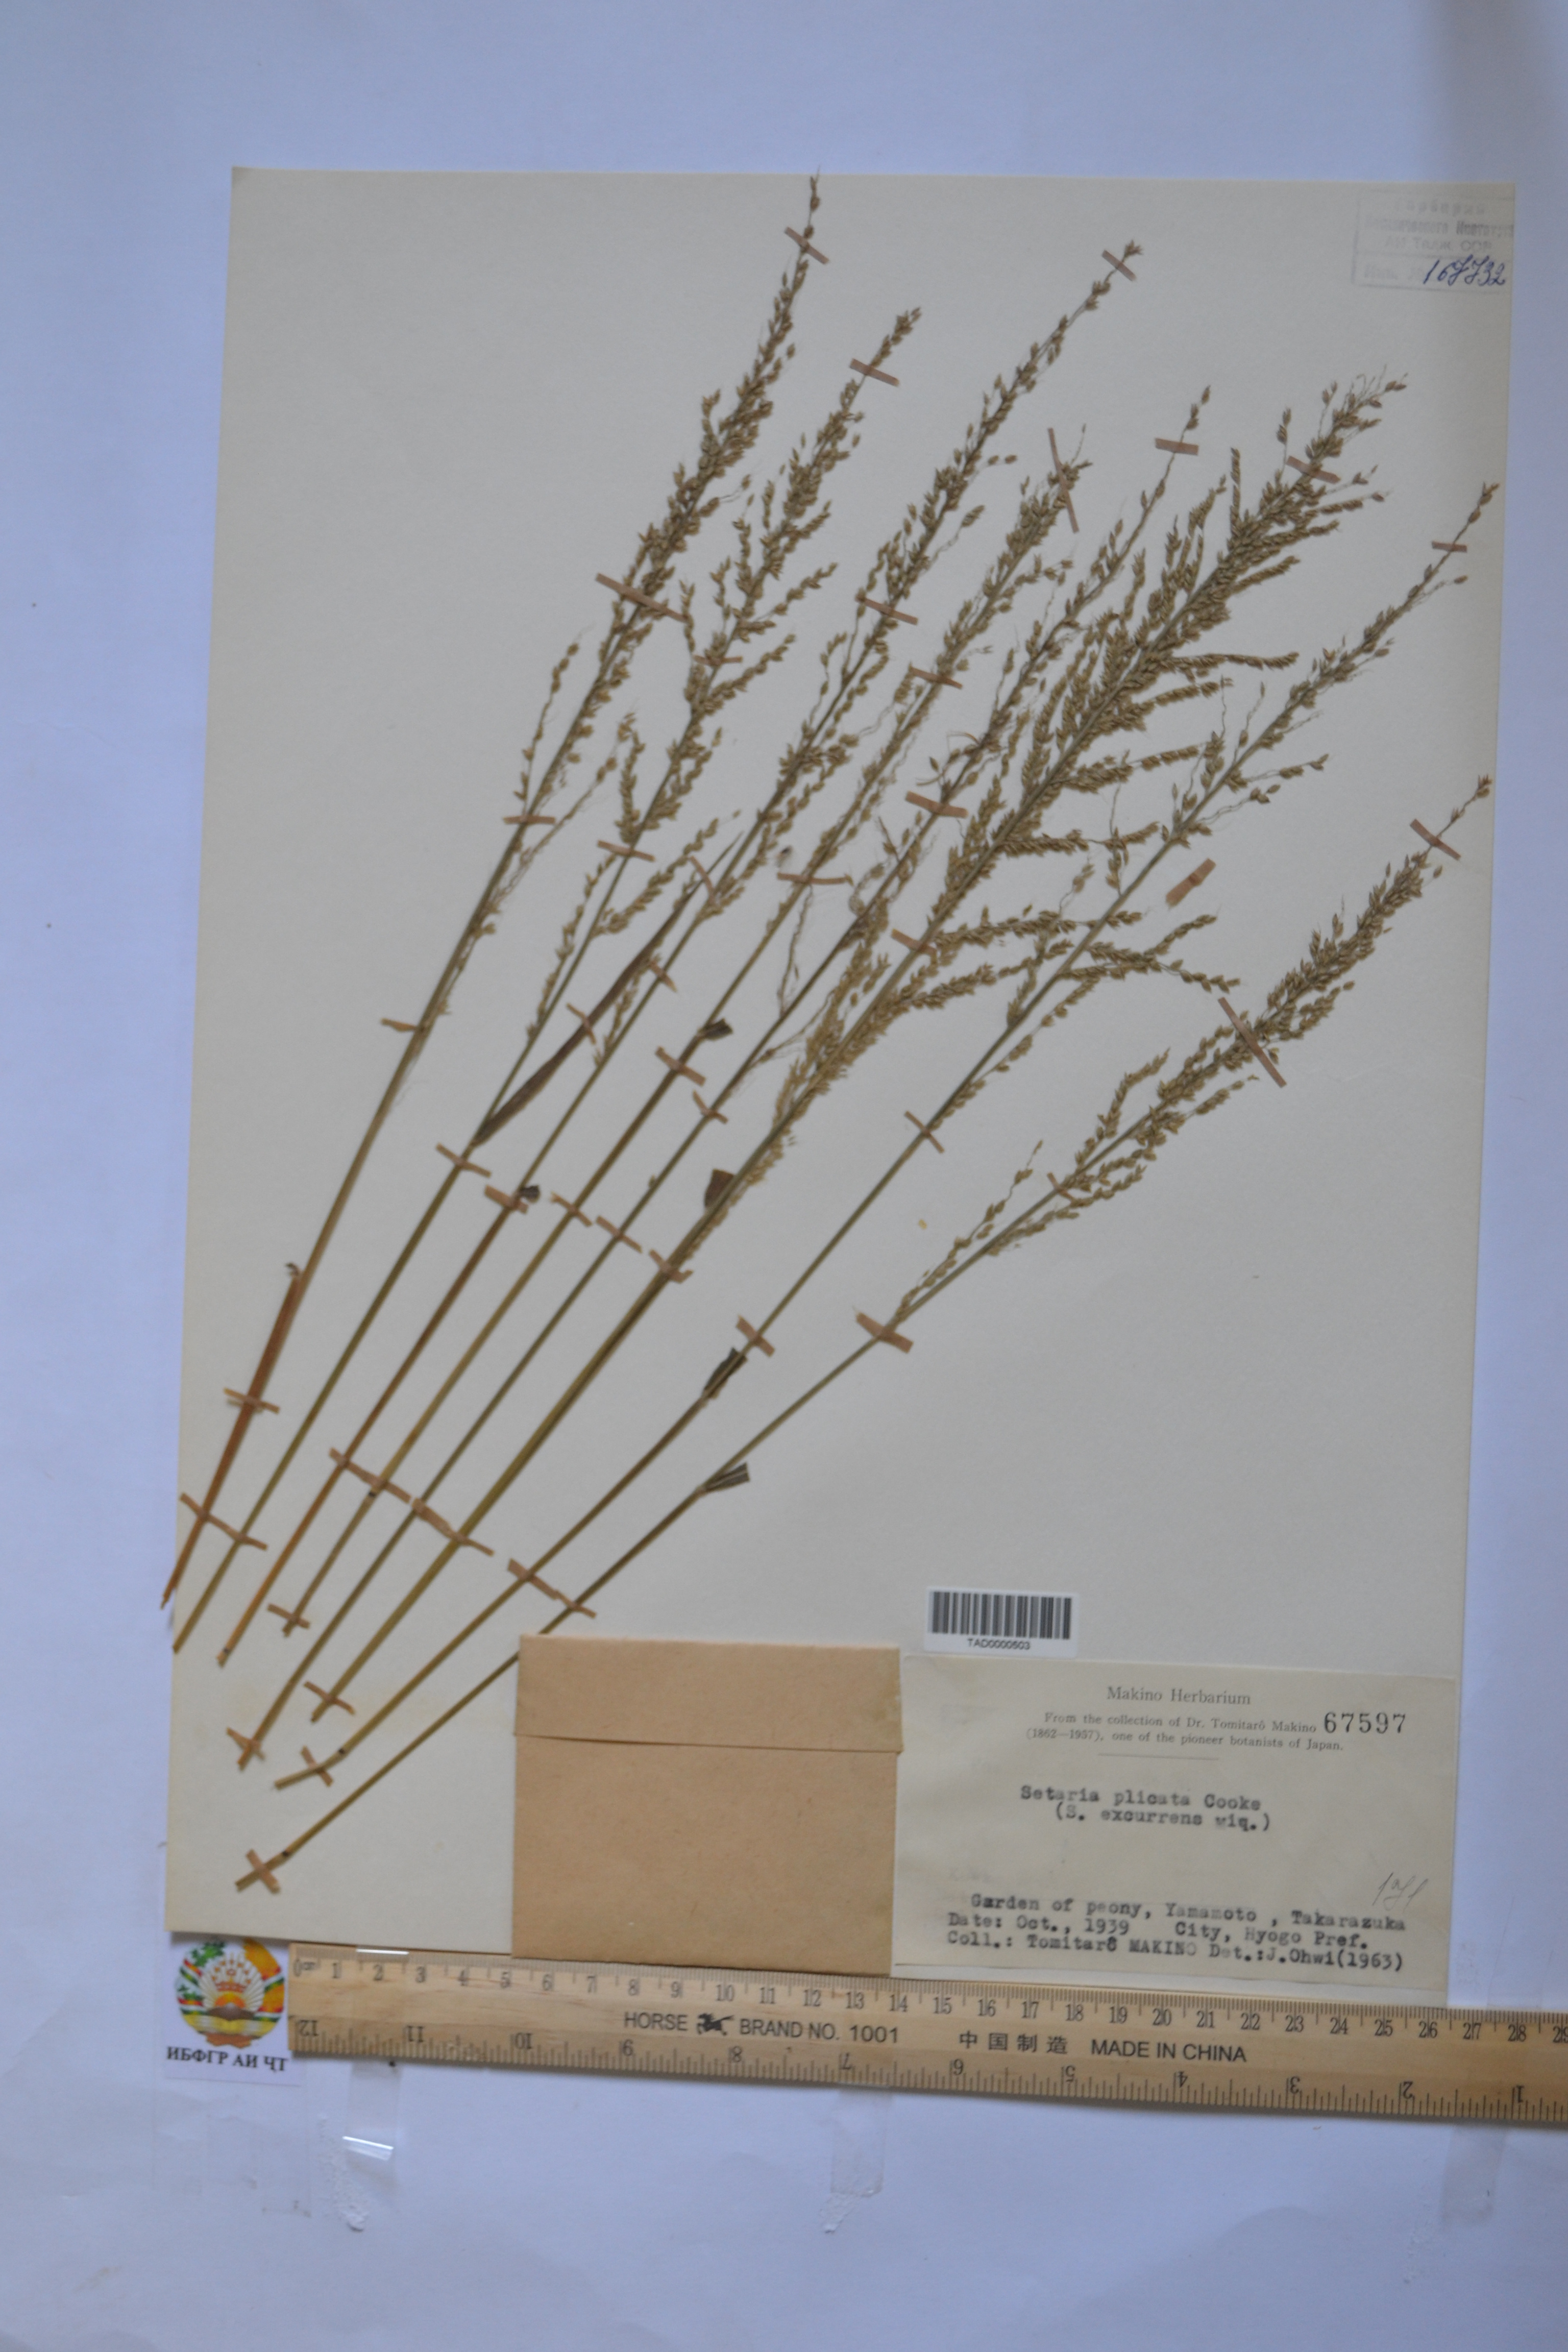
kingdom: Plantae
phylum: Tracheophyta
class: Liliopsida
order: Poales
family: Poaceae
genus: Setaria
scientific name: Setaria plicata
